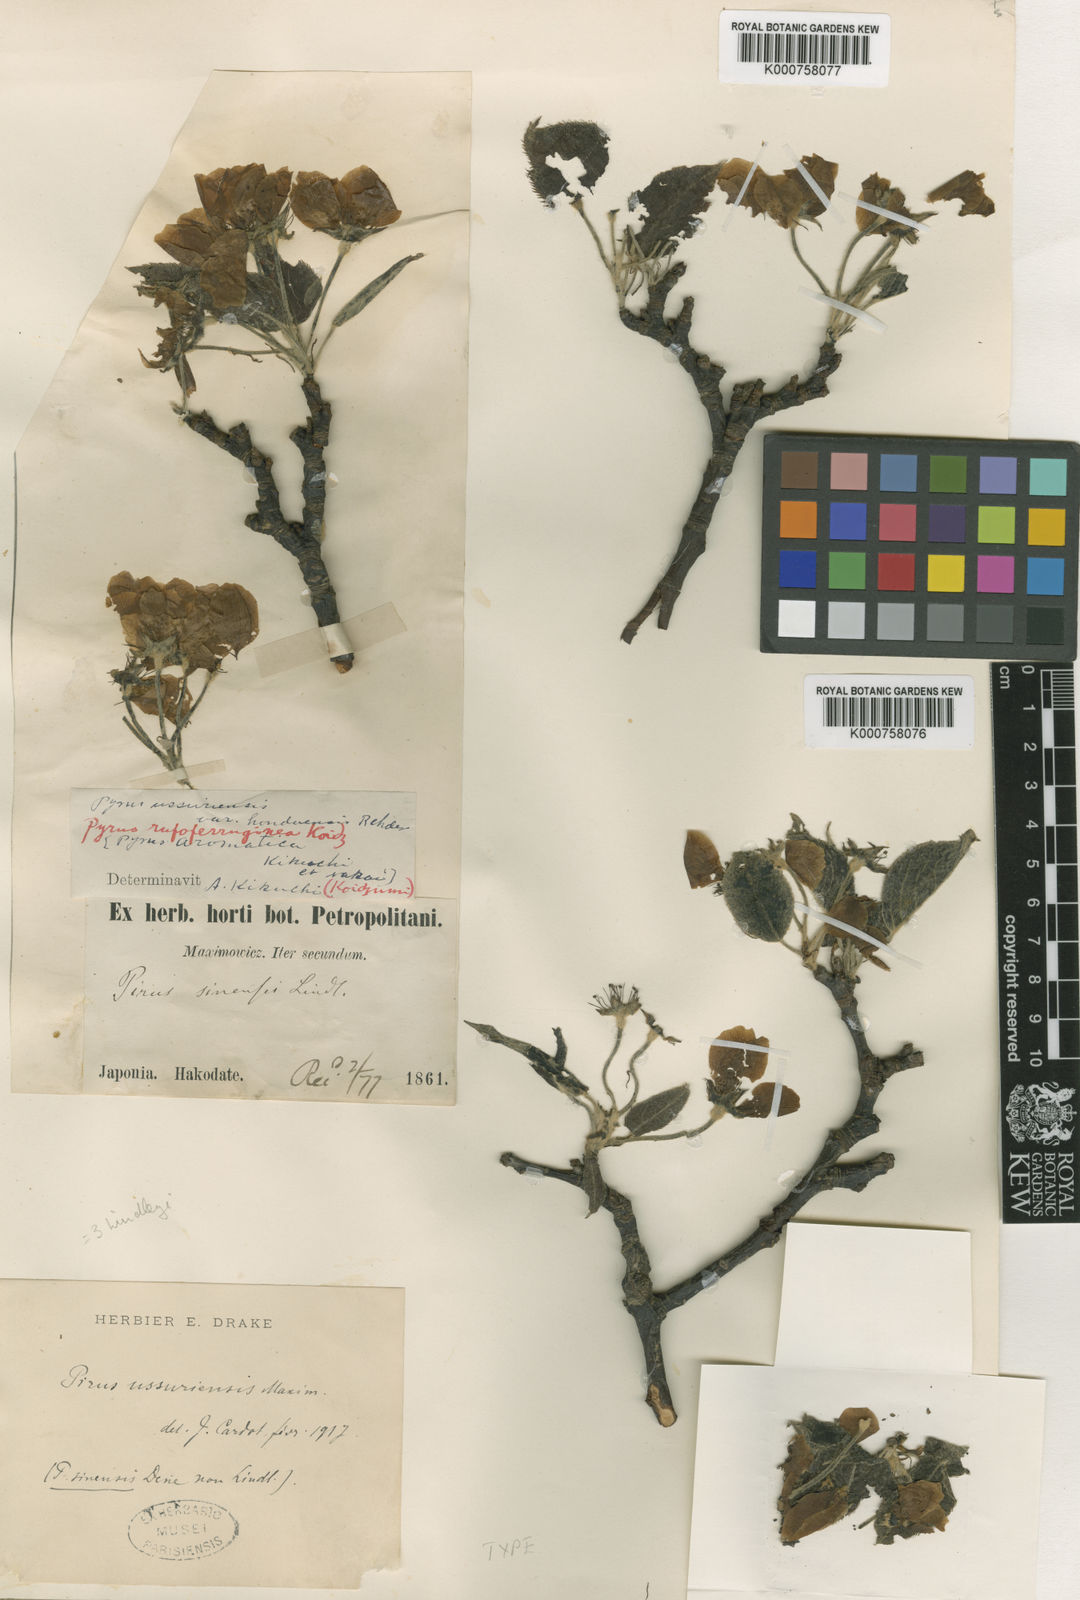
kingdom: Plantae
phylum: Tracheophyta
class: Magnoliopsida
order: Rosales
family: Rosaceae
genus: Pyrus
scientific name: Pyrus ussuriensis
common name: Harbin pear
